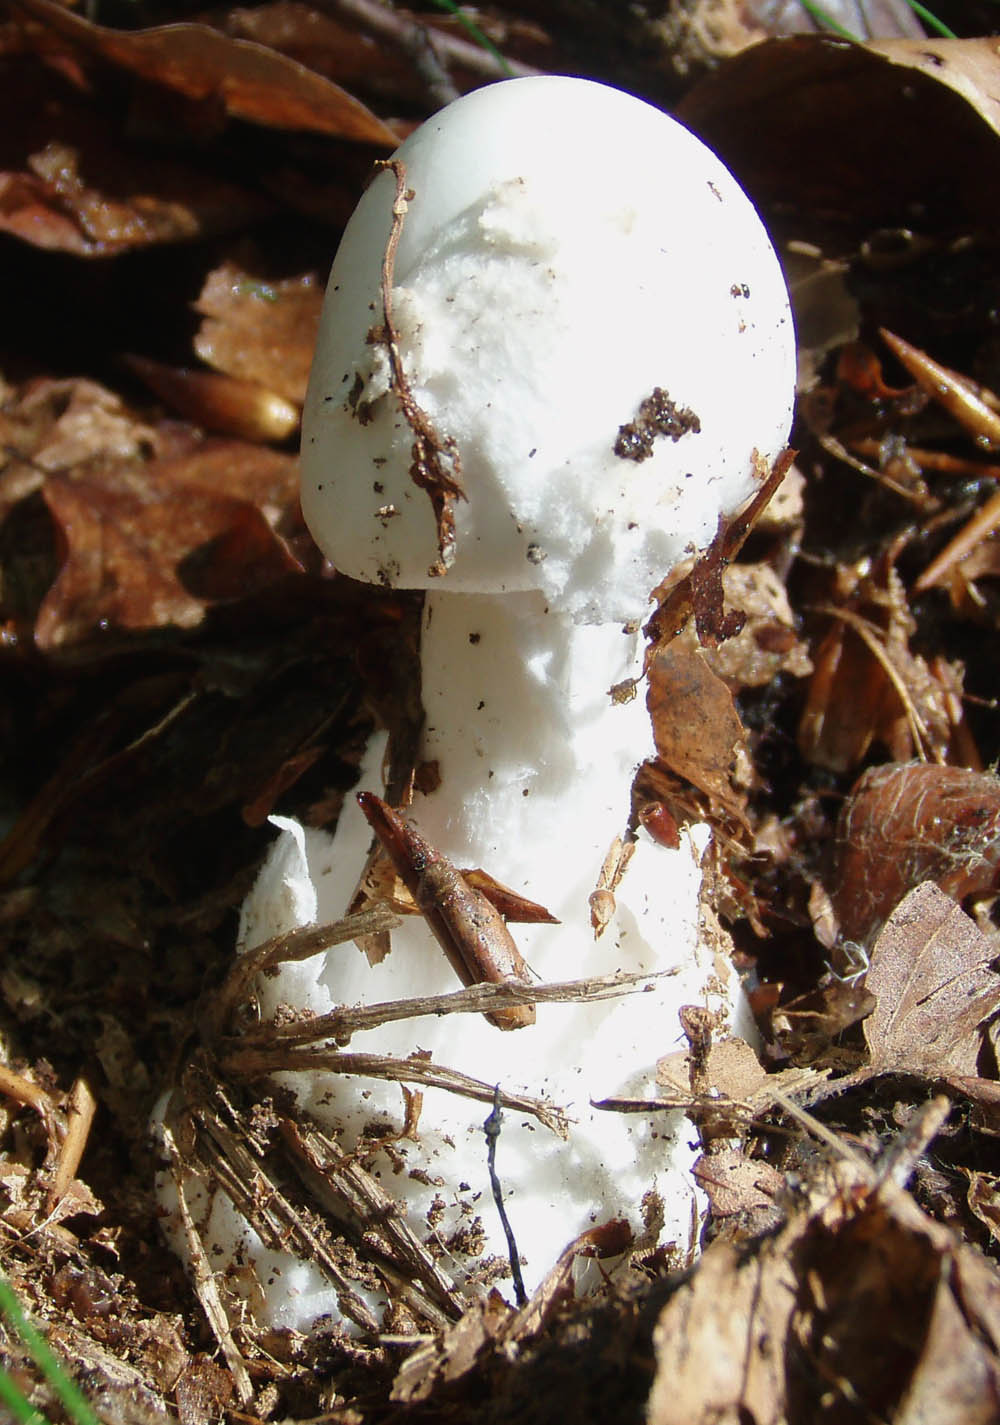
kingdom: Fungi
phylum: Basidiomycota
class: Agaricomycetes
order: Agaricales
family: Amanitaceae
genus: Amanita
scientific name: Amanita virosa
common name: snehvid fluesvamp
